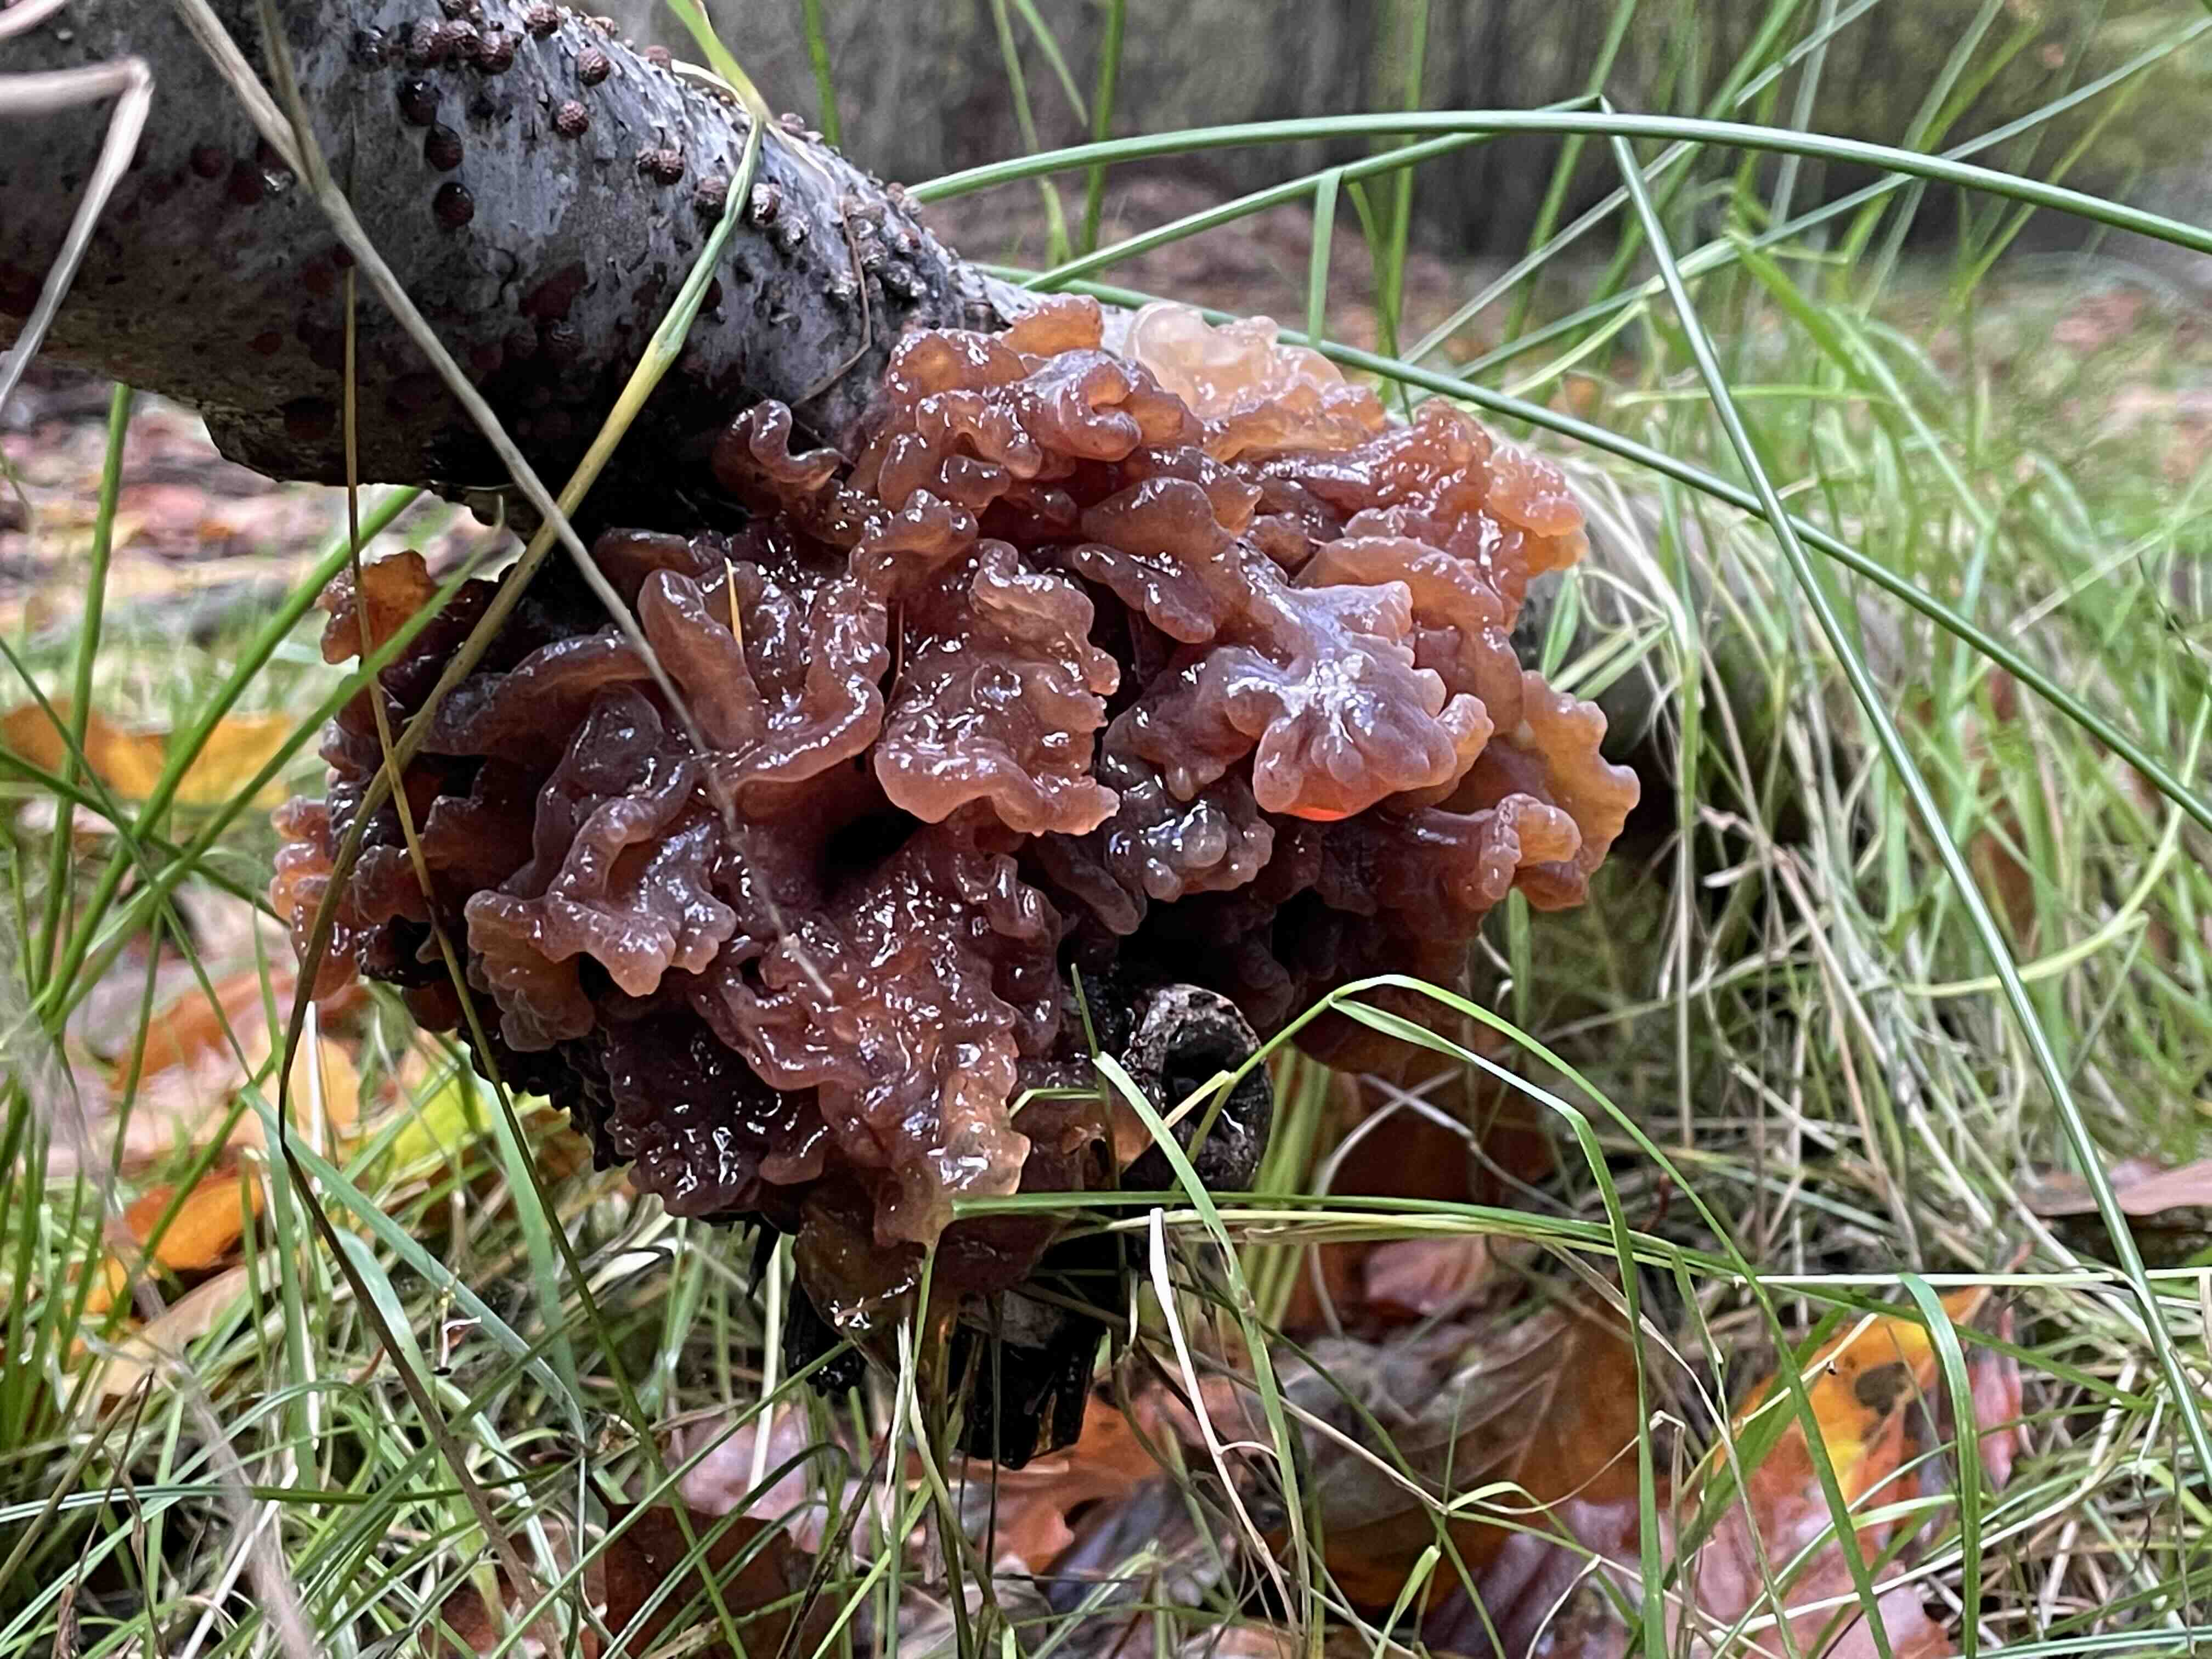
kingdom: Fungi
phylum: Basidiomycota
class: Tremellomycetes
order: Tremellales
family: Tremellaceae
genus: Phaeotremella
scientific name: Phaeotremella frondosa
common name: kæmpe-bævresvamp
